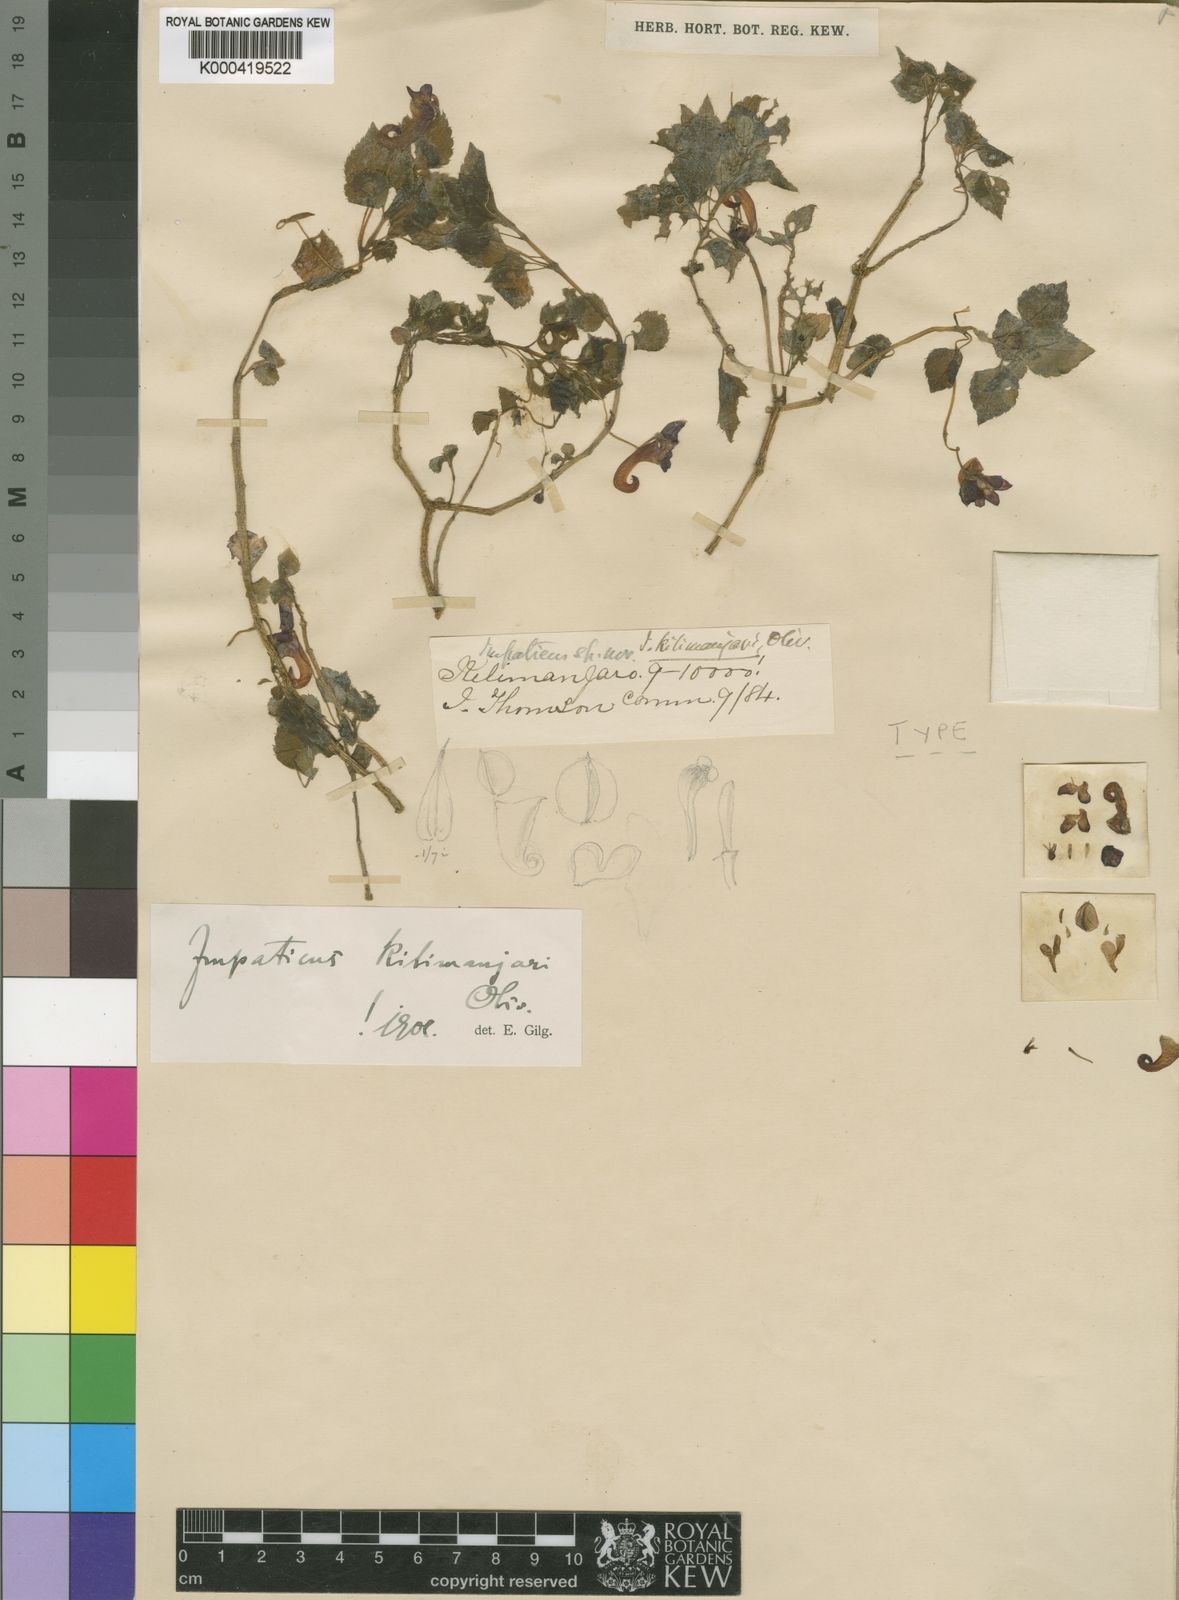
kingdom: Plantae
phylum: Tracheophyta
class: Magnoliopsida
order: Ericales
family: Balsaminaceae
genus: Impatiens
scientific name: Impatiens kilimanjari
